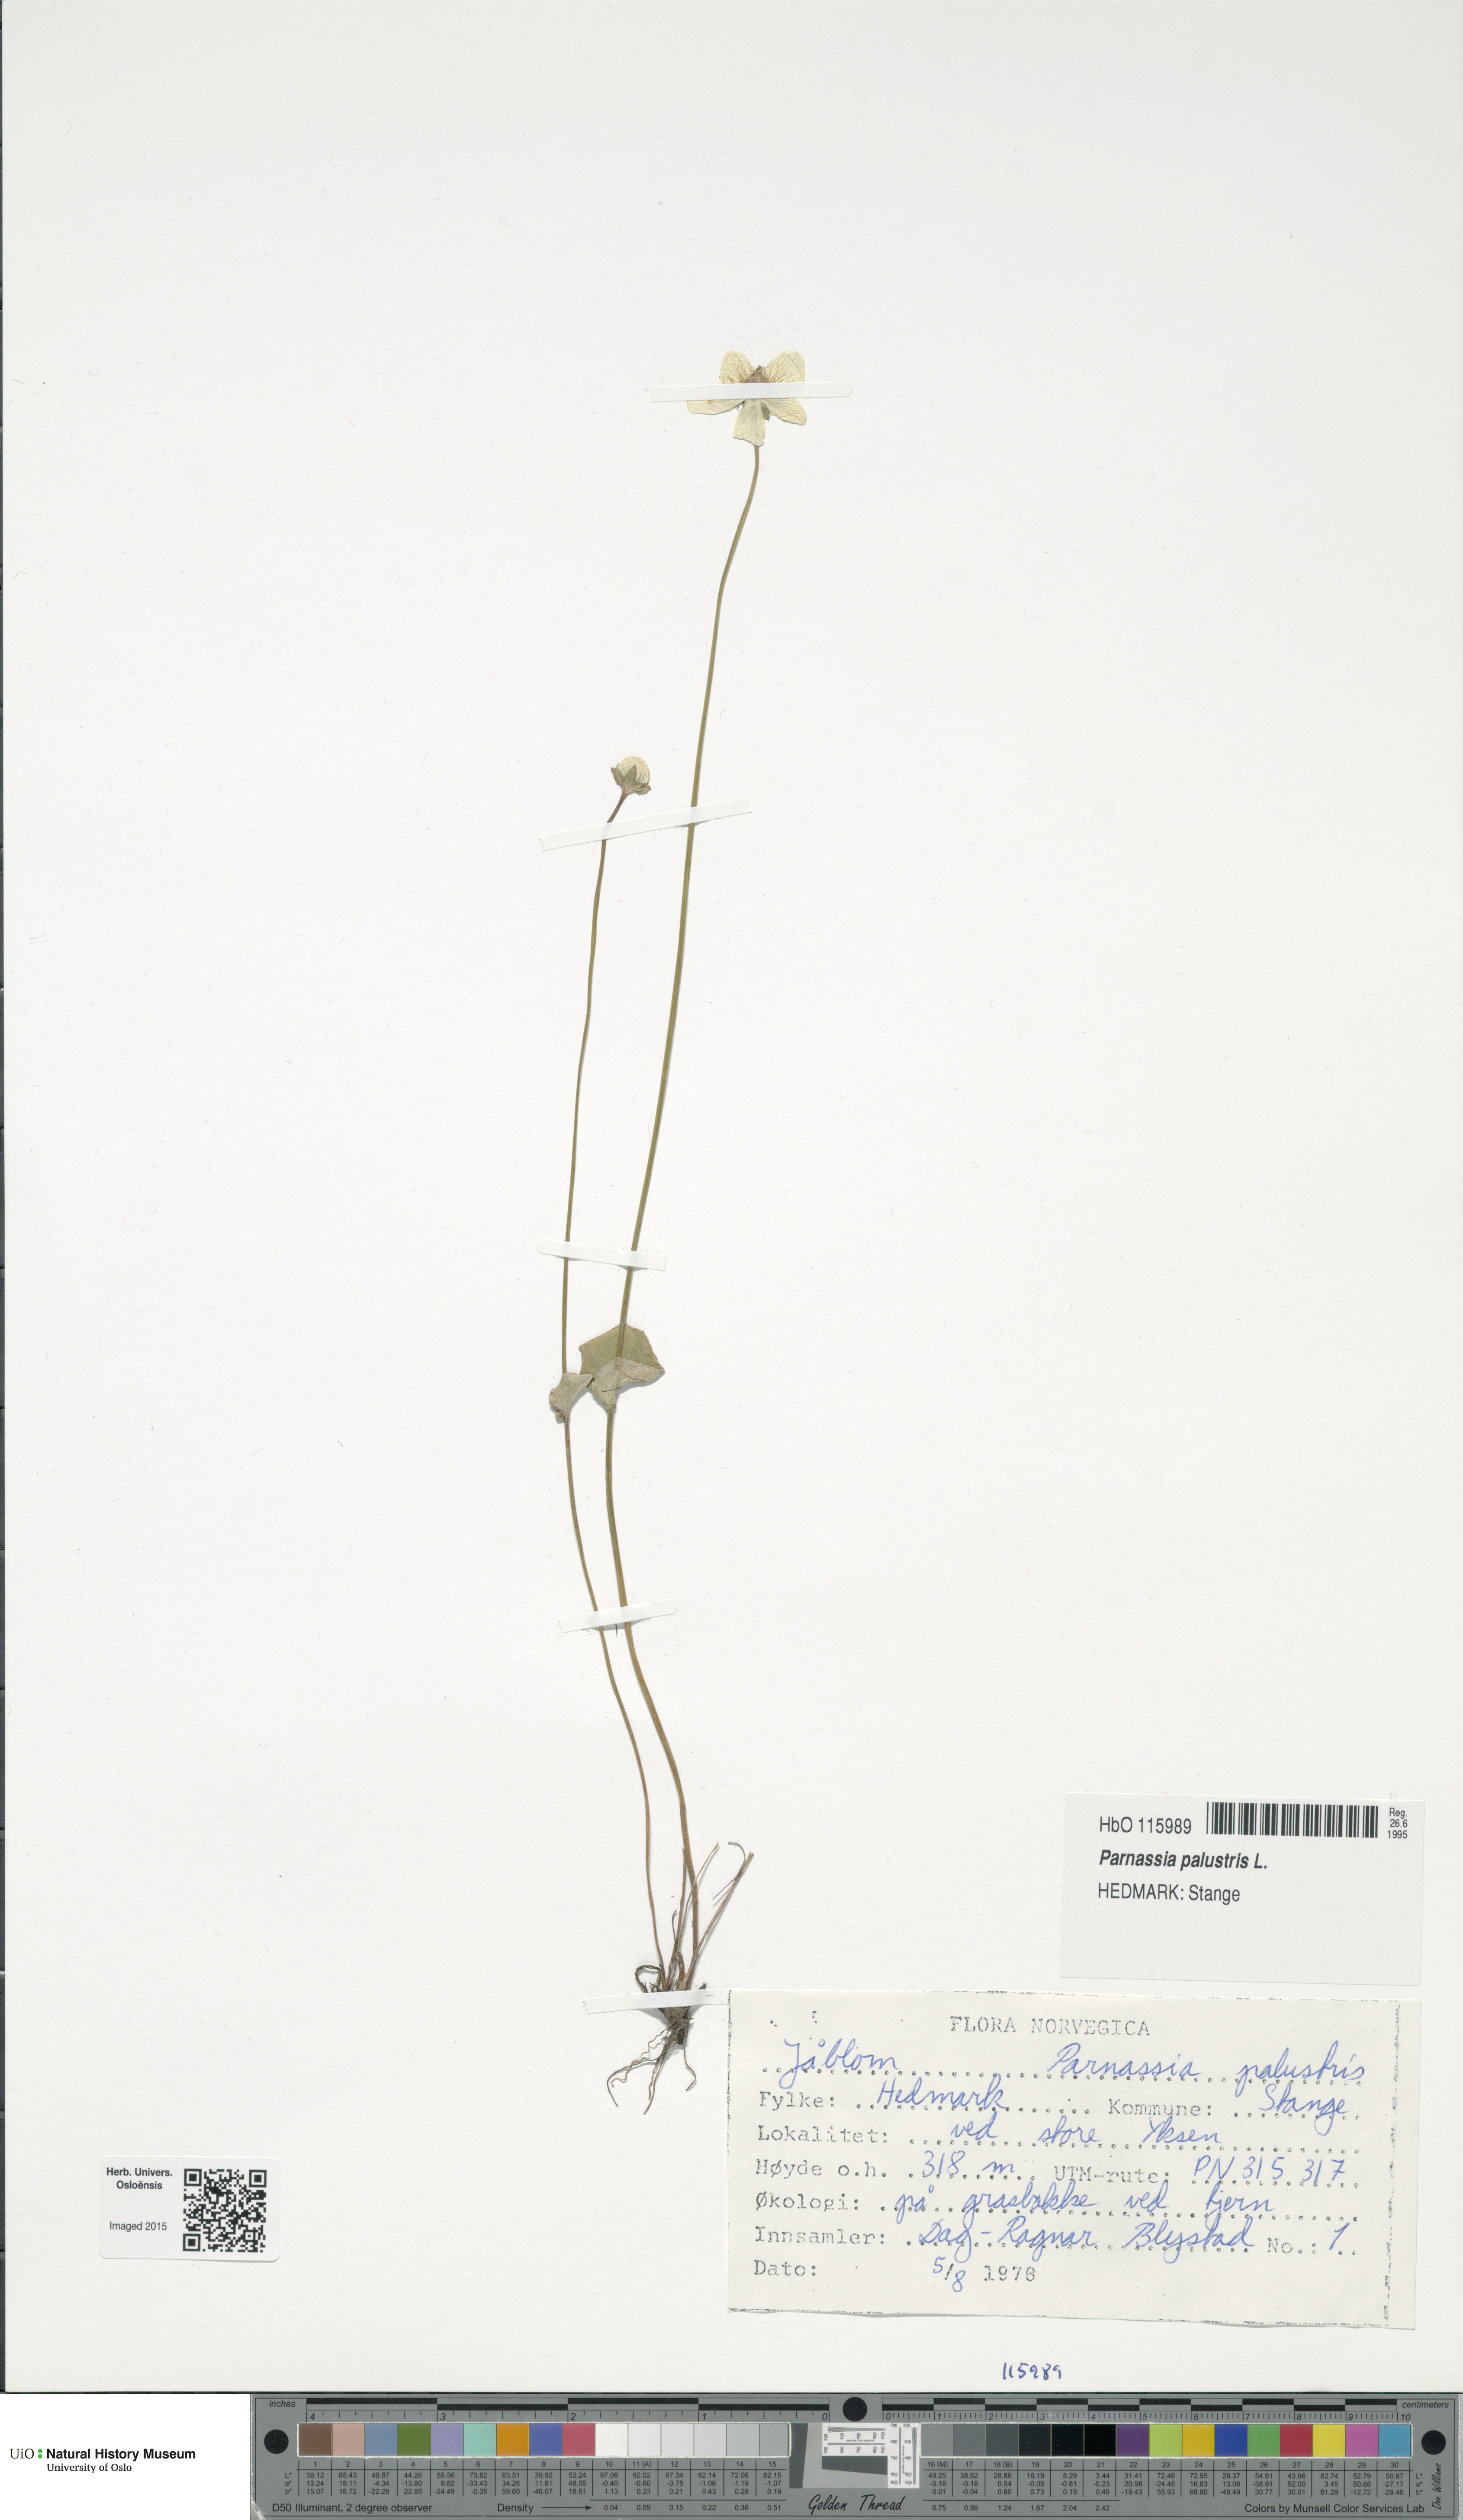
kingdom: Plantae
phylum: Tracheophyta
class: Magnoliopsida
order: Celastrales
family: Parnassiaceae
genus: Parnassia
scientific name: Parnassia palustris
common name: Grass-of-parnassus
